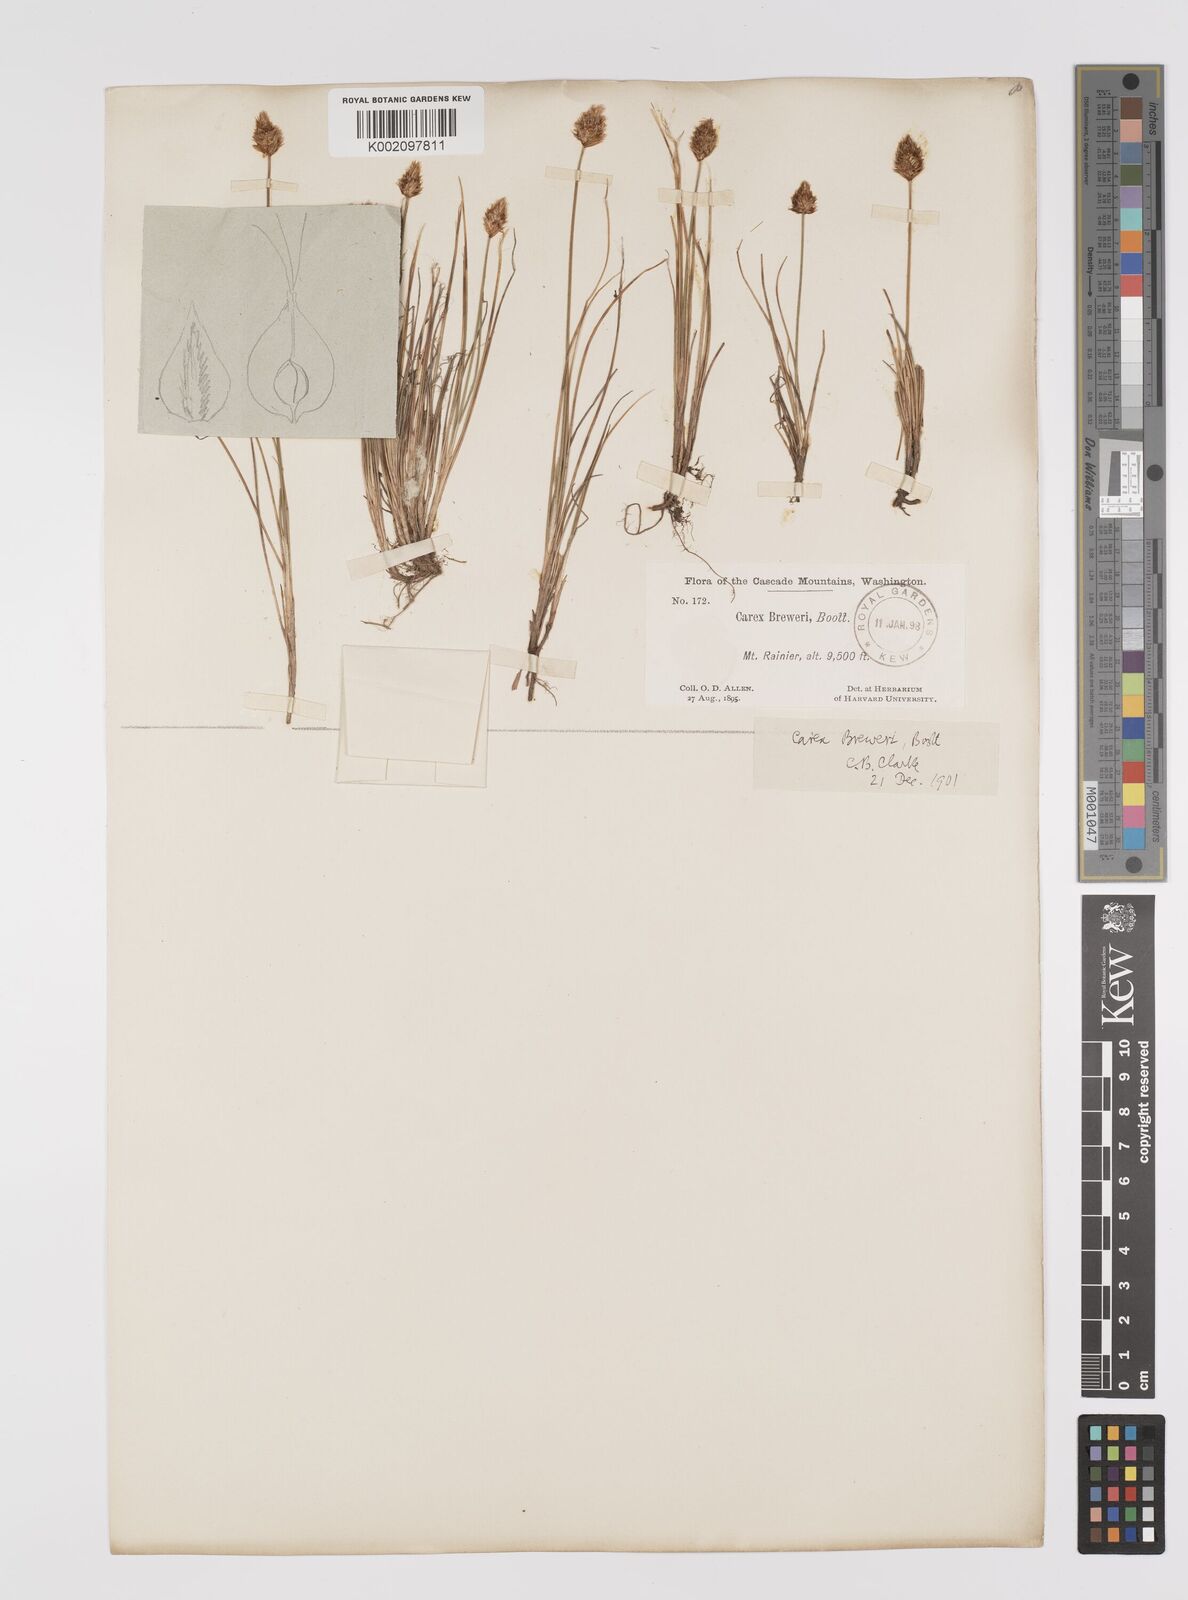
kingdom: Plantae
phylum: Tracheophyta
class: Liliopsida
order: Poales
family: Cyperaceae
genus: Carex
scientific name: Carex breweri
